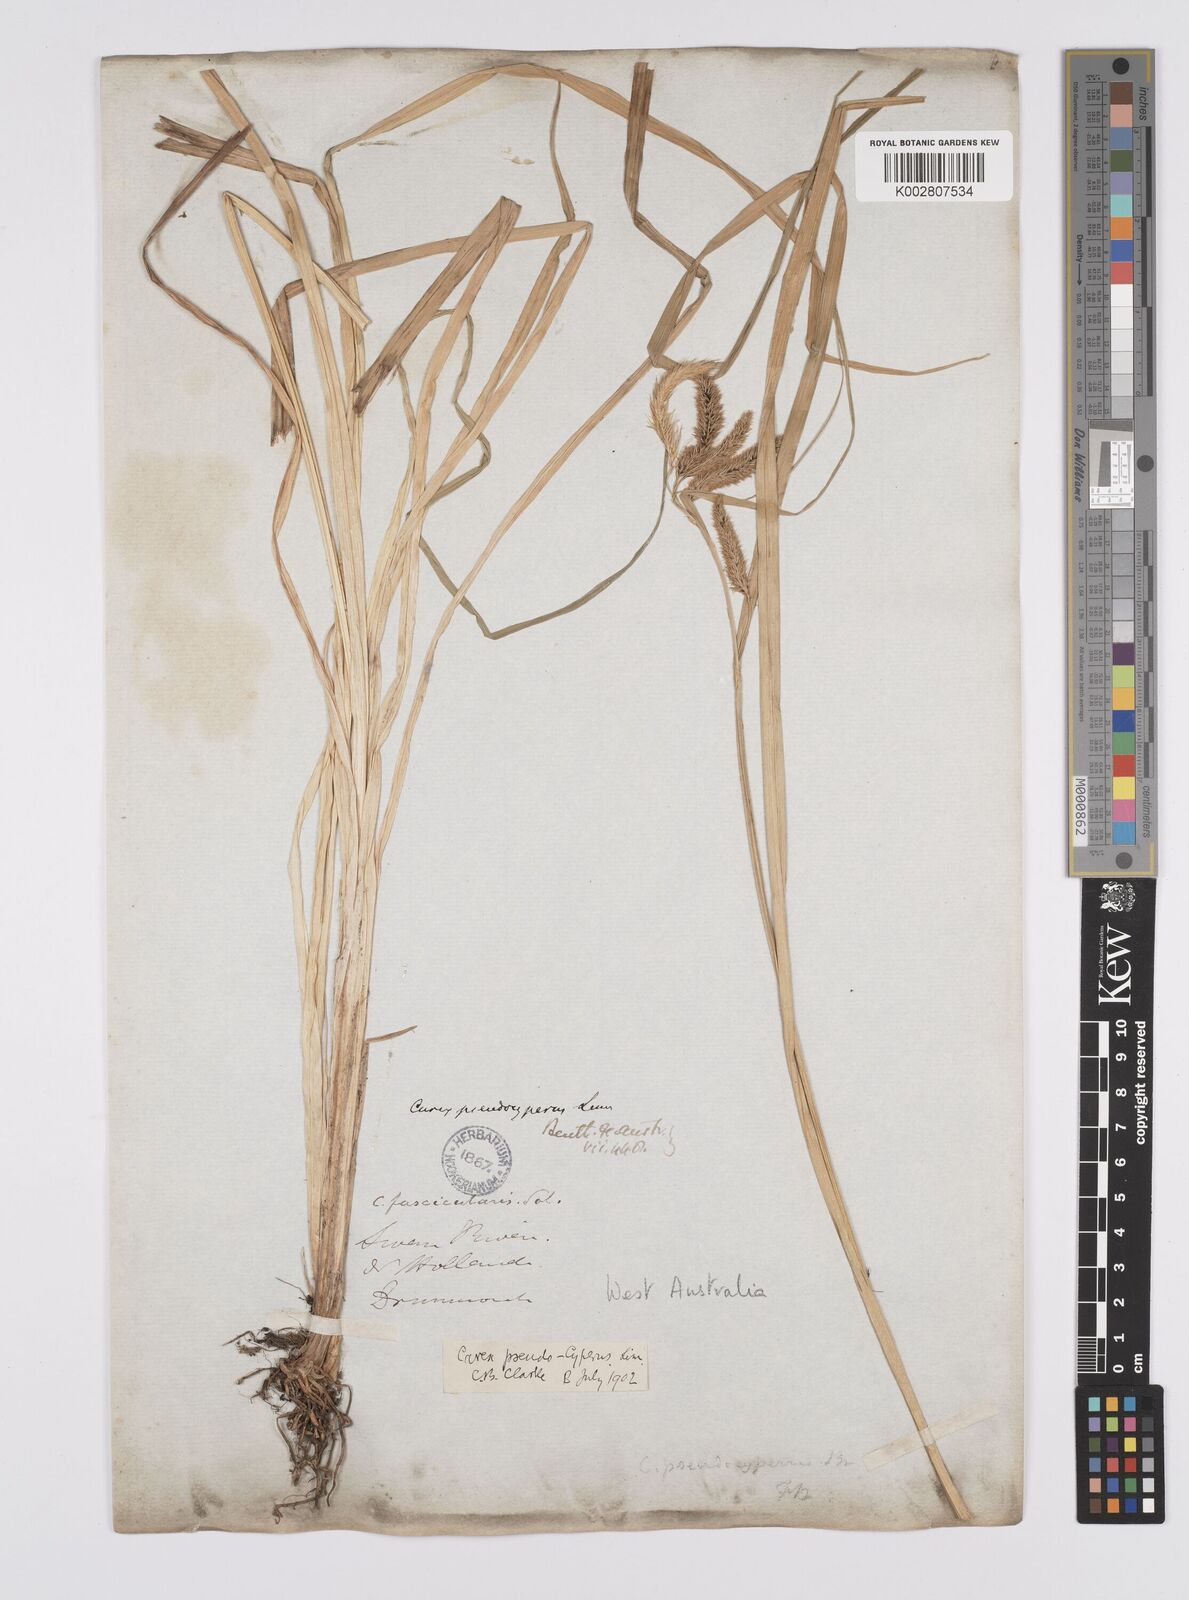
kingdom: Plantae
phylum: Tracheophyta
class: Liliopsida
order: Poales
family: Cyperaceae
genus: Carex
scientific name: Carex cespitosa
